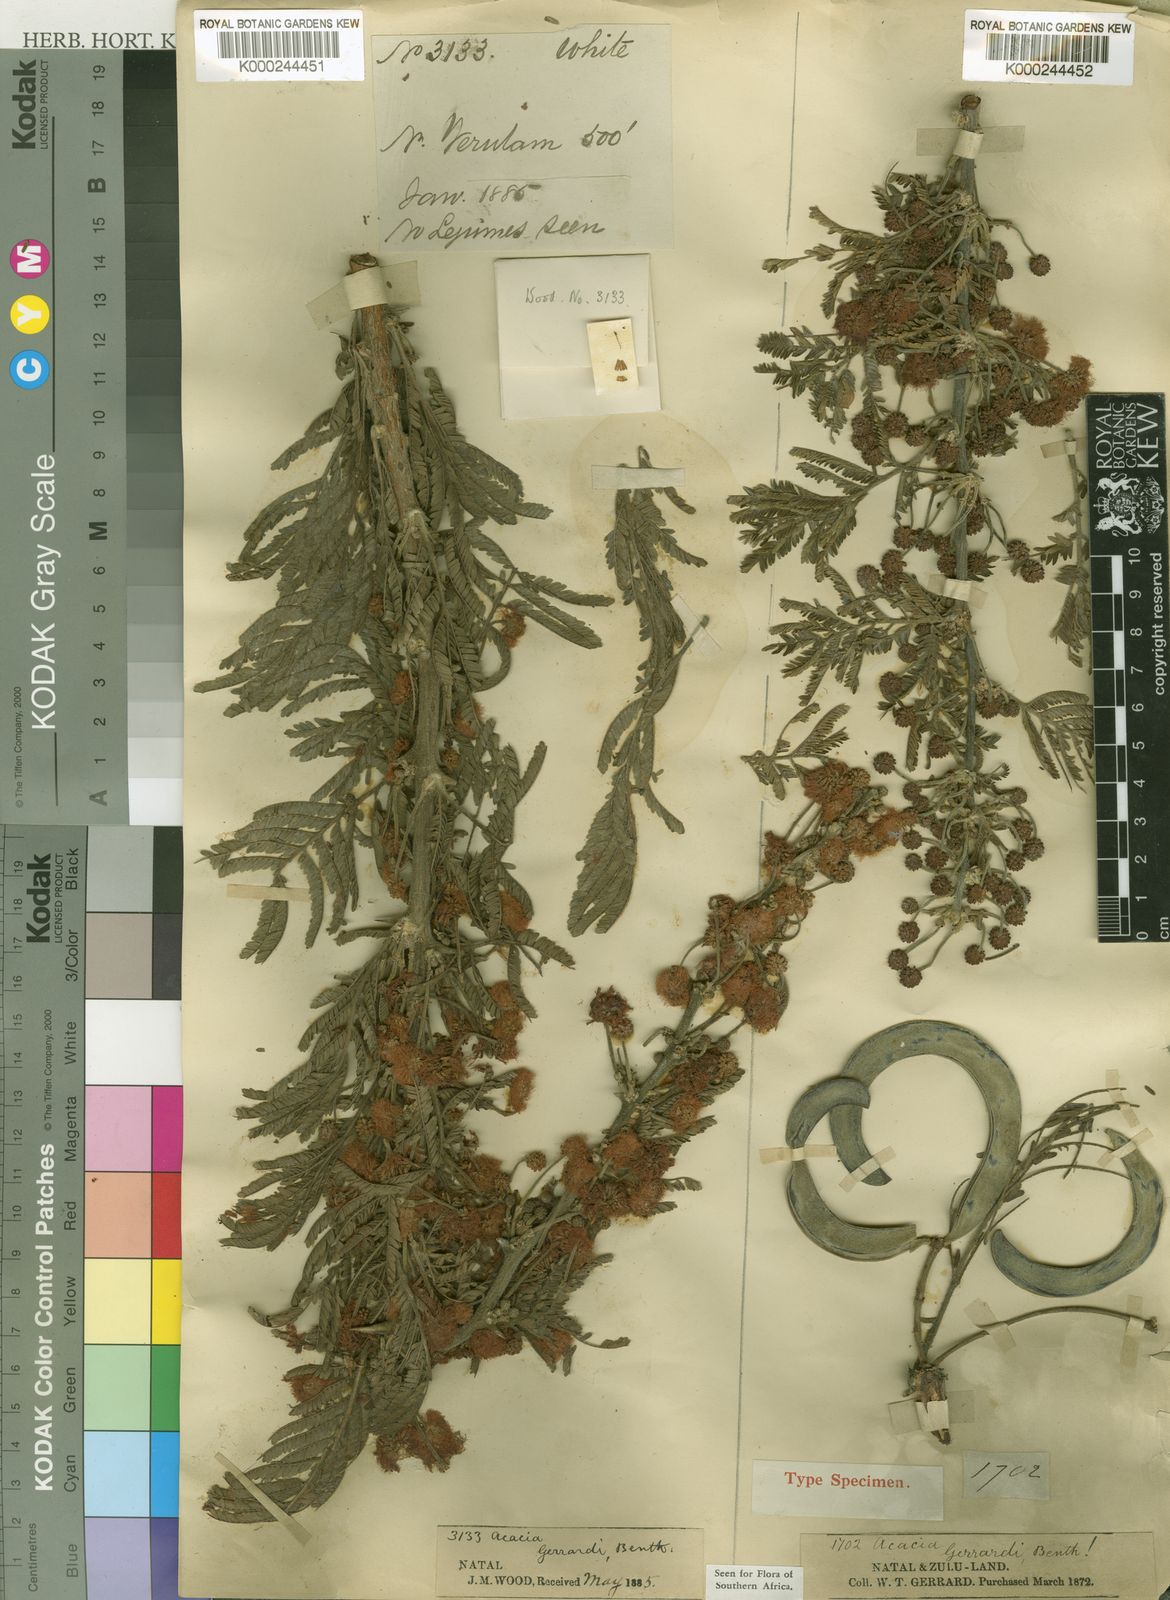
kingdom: Plantae
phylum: Tracheophyta
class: Magnoliopsida
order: Fabales
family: Fabaceae
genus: Vachellia
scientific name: Vachellia gerrardii
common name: Redthorn
